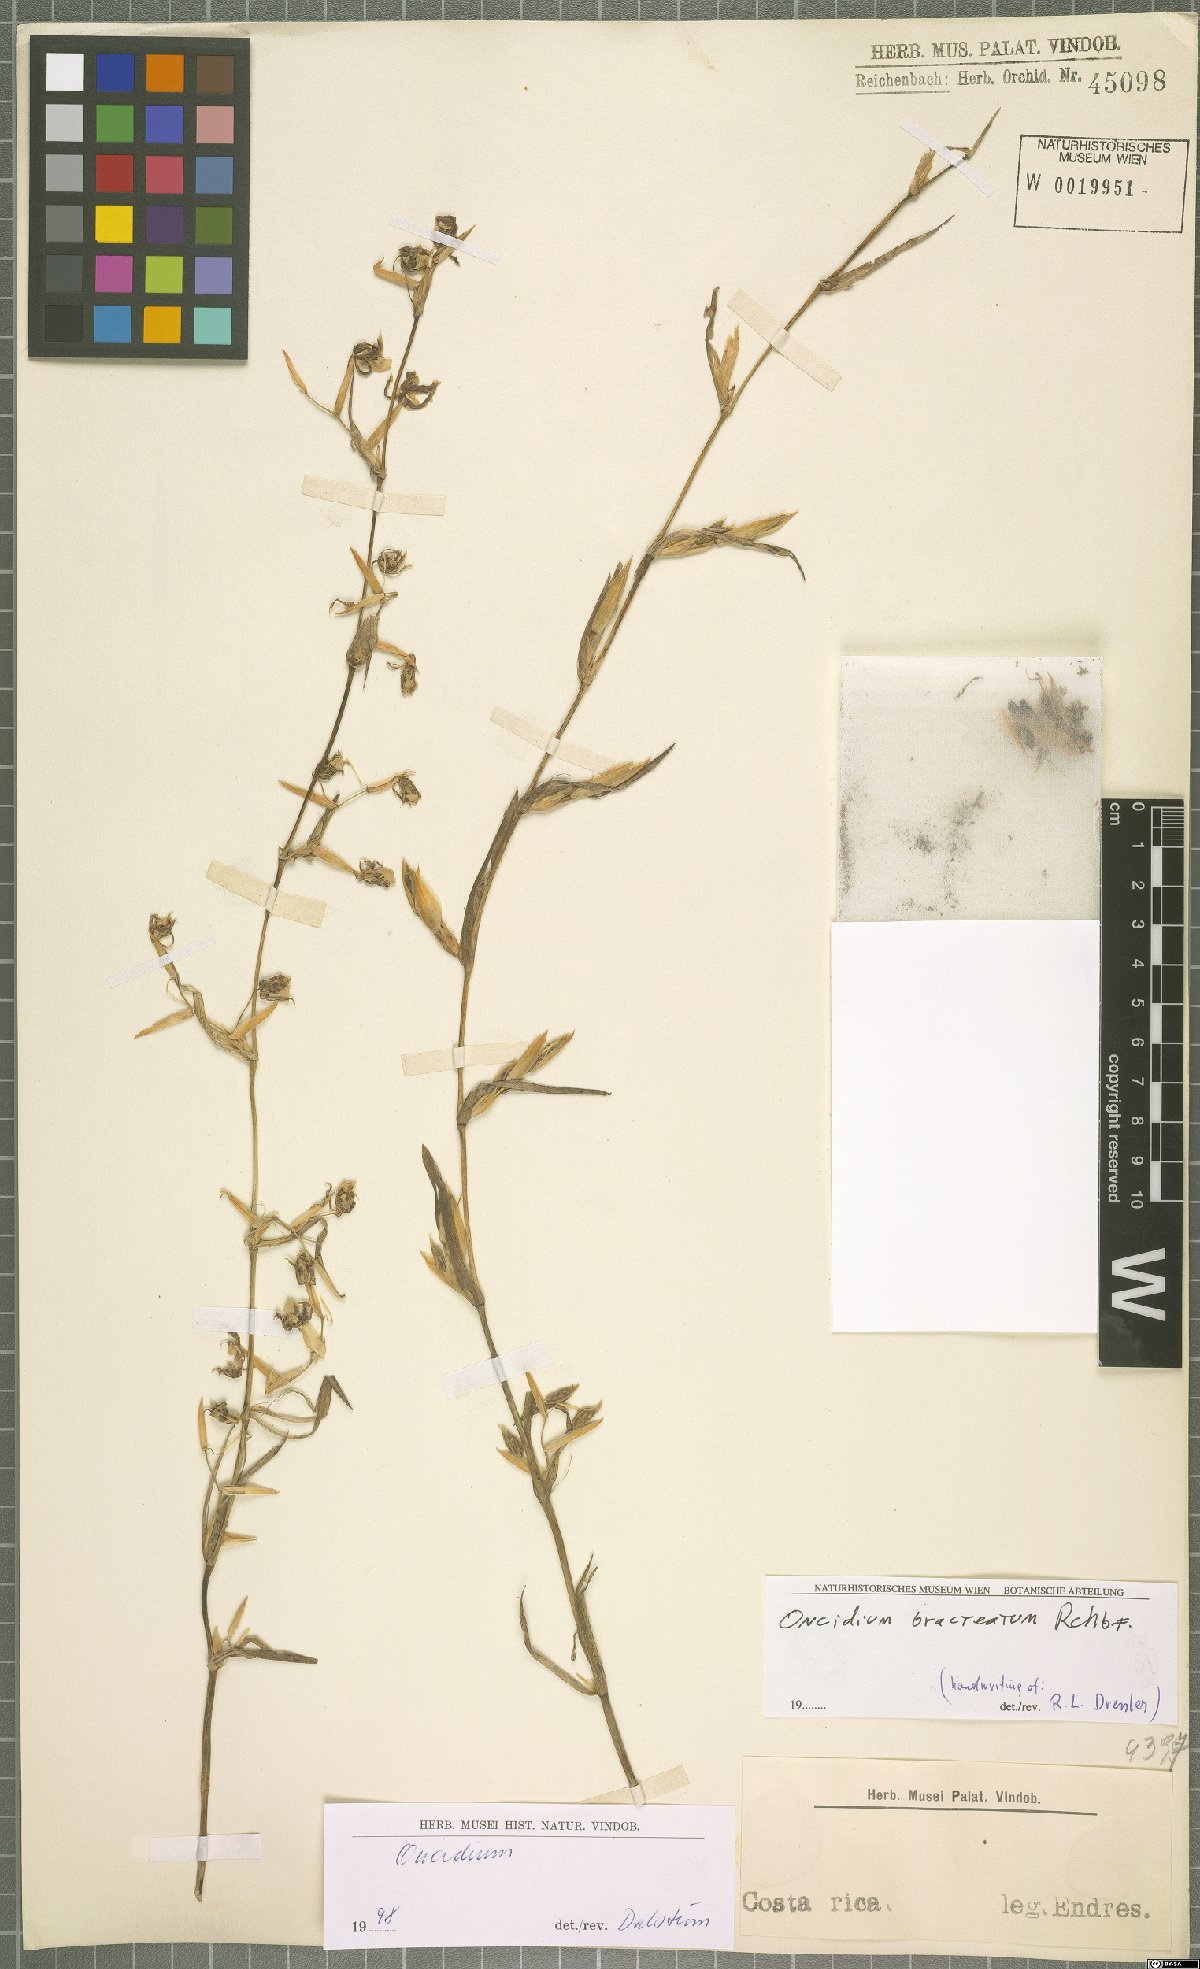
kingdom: Plantae
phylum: Tracheophyta
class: Liliopsida
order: Asparagales
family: Orchidaceae
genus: Oncidium
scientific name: Oncidium bracteatum
